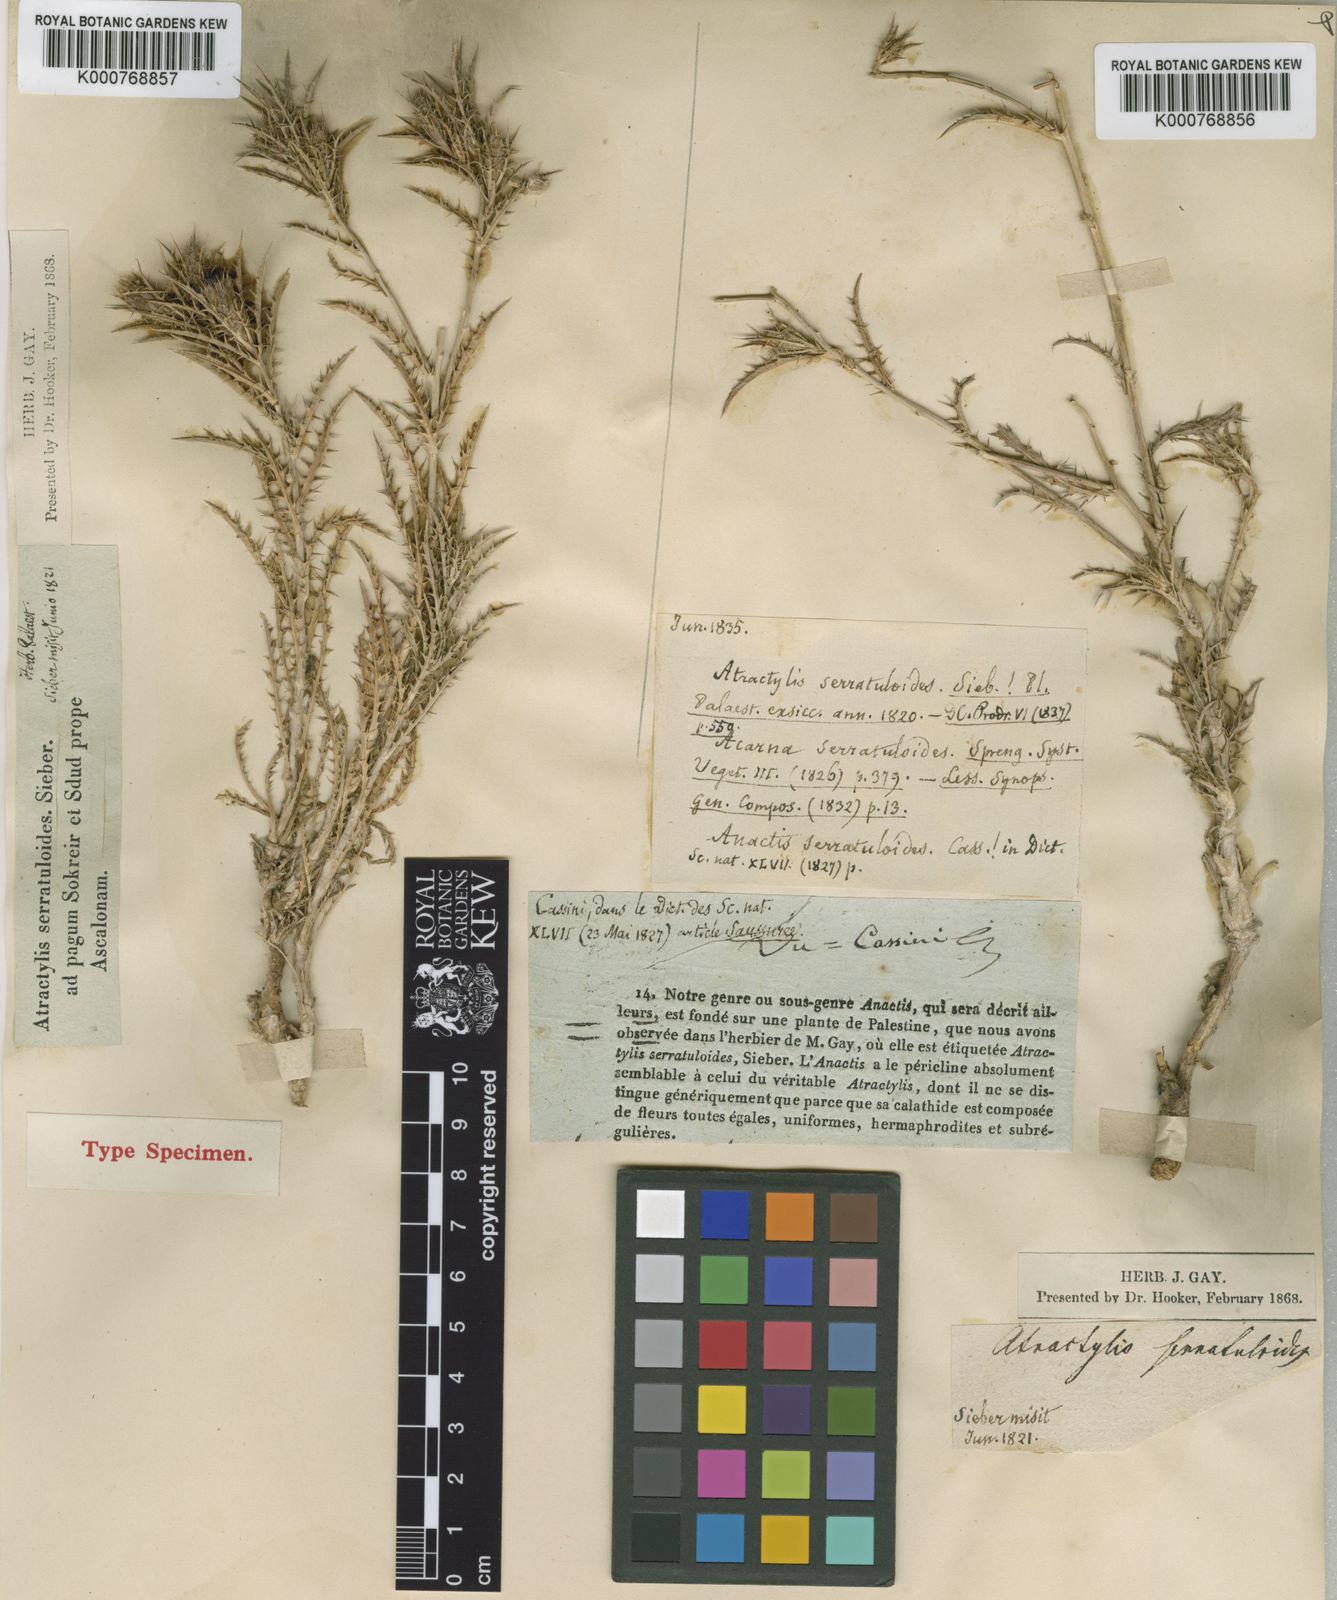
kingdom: Plantae
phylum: Tracheophyta
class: Magnoliopsida
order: Asterales
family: Asteraceae
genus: Atractylis
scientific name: Atractylis serratuloides
